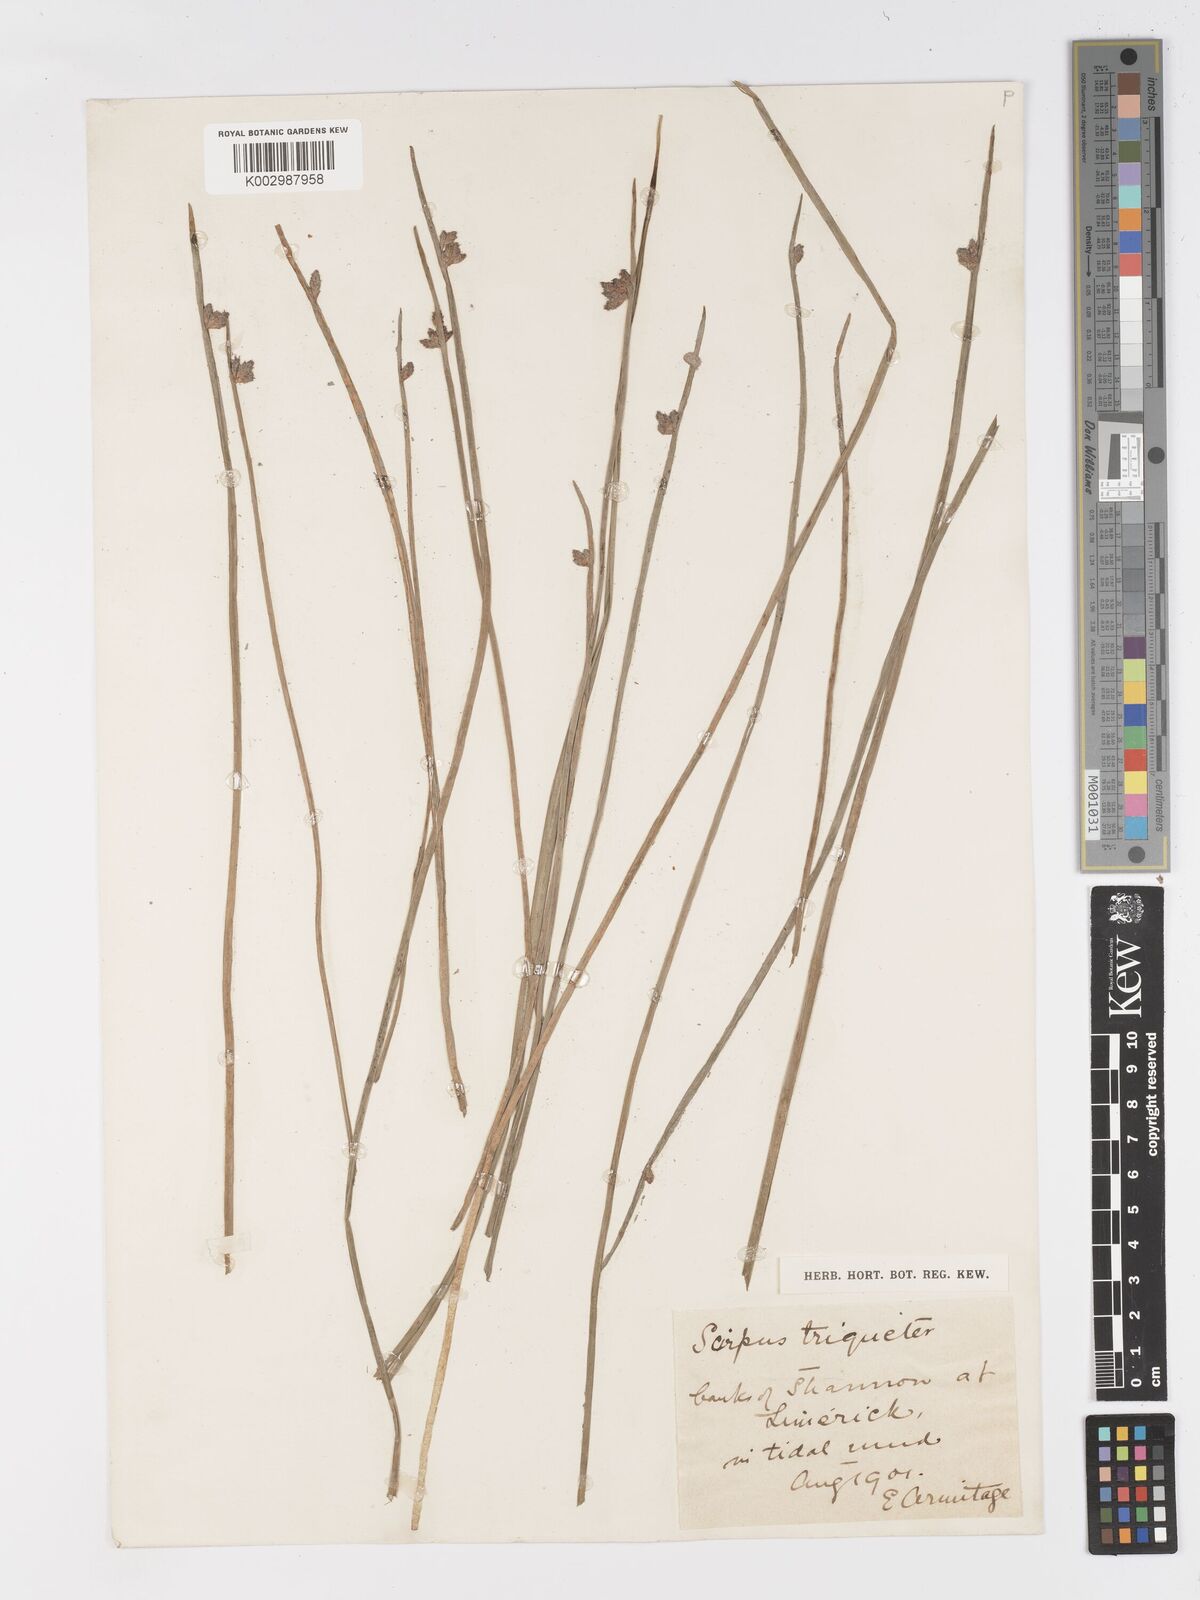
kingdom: Plantae
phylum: Tracheophyta
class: Liliopsida
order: Poales
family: Cyperaceae
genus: Schoenoplectus
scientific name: Schoenoplectus triqueter
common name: Triangular club-rush
